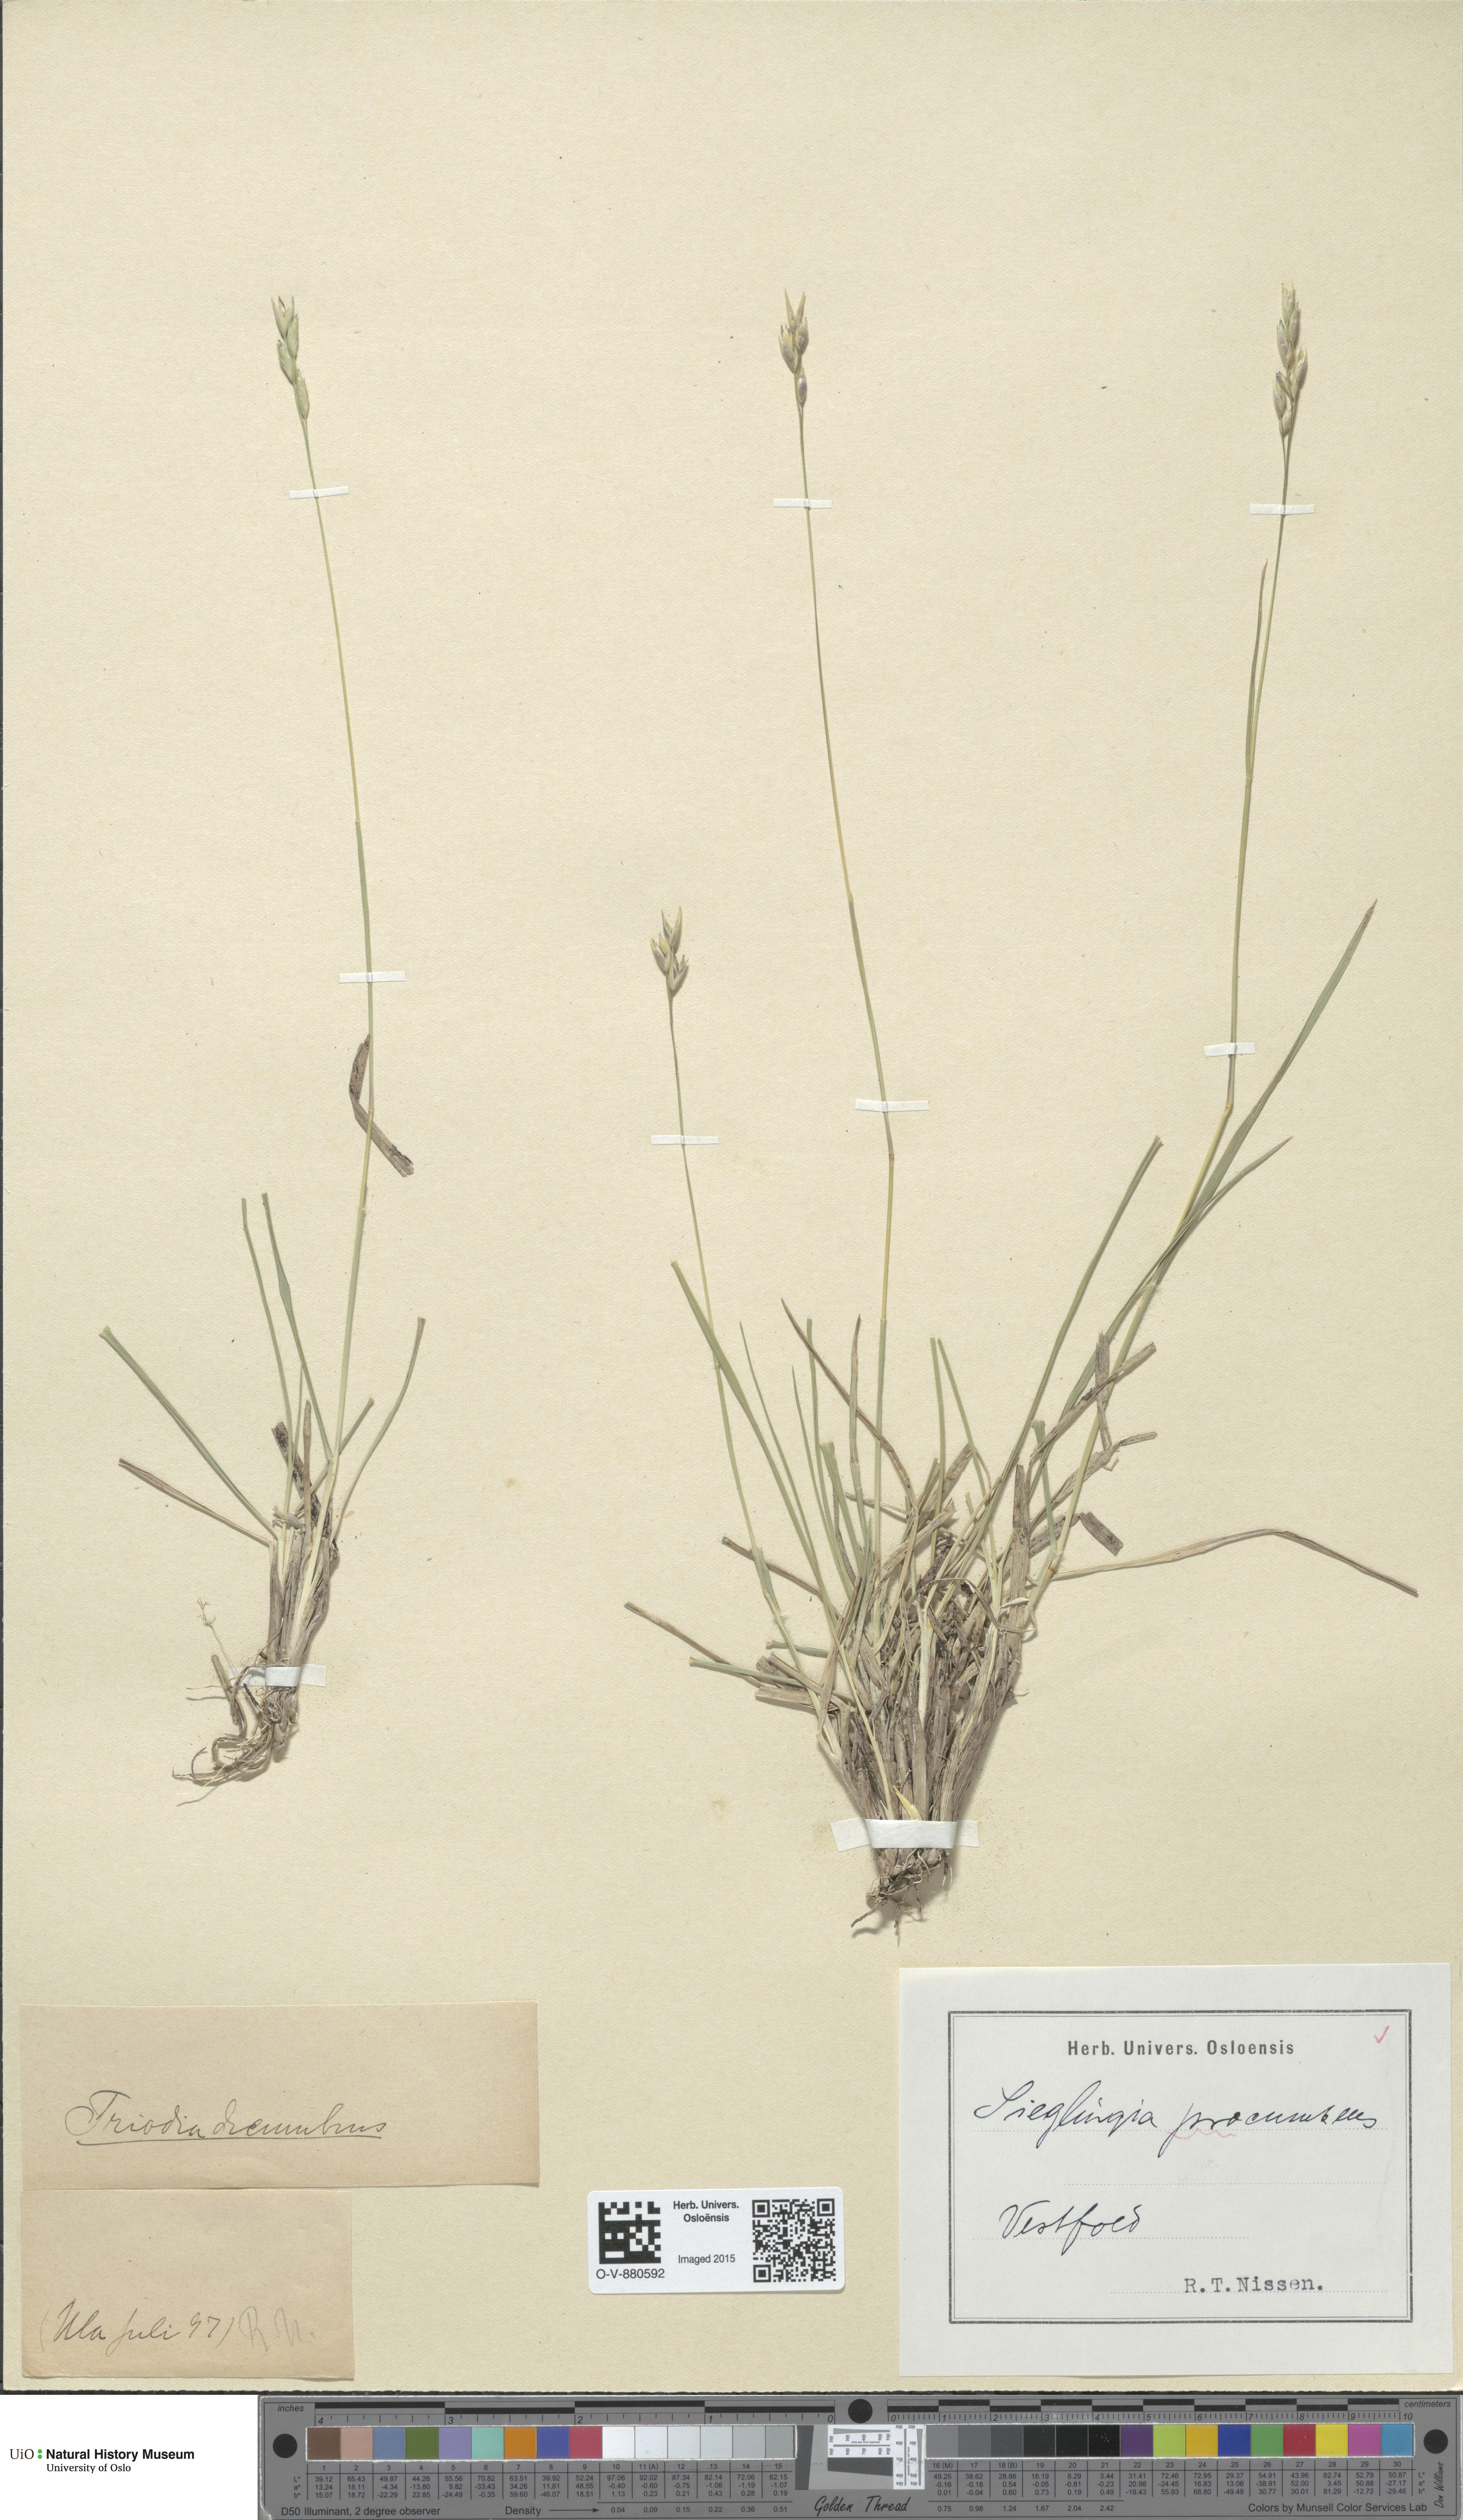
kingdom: Plantae
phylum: Tracheophyta
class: Liliopsida
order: Poales
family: Poaceae
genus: Danthonia
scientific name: Danthonia decumbens
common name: Common heathgrass
